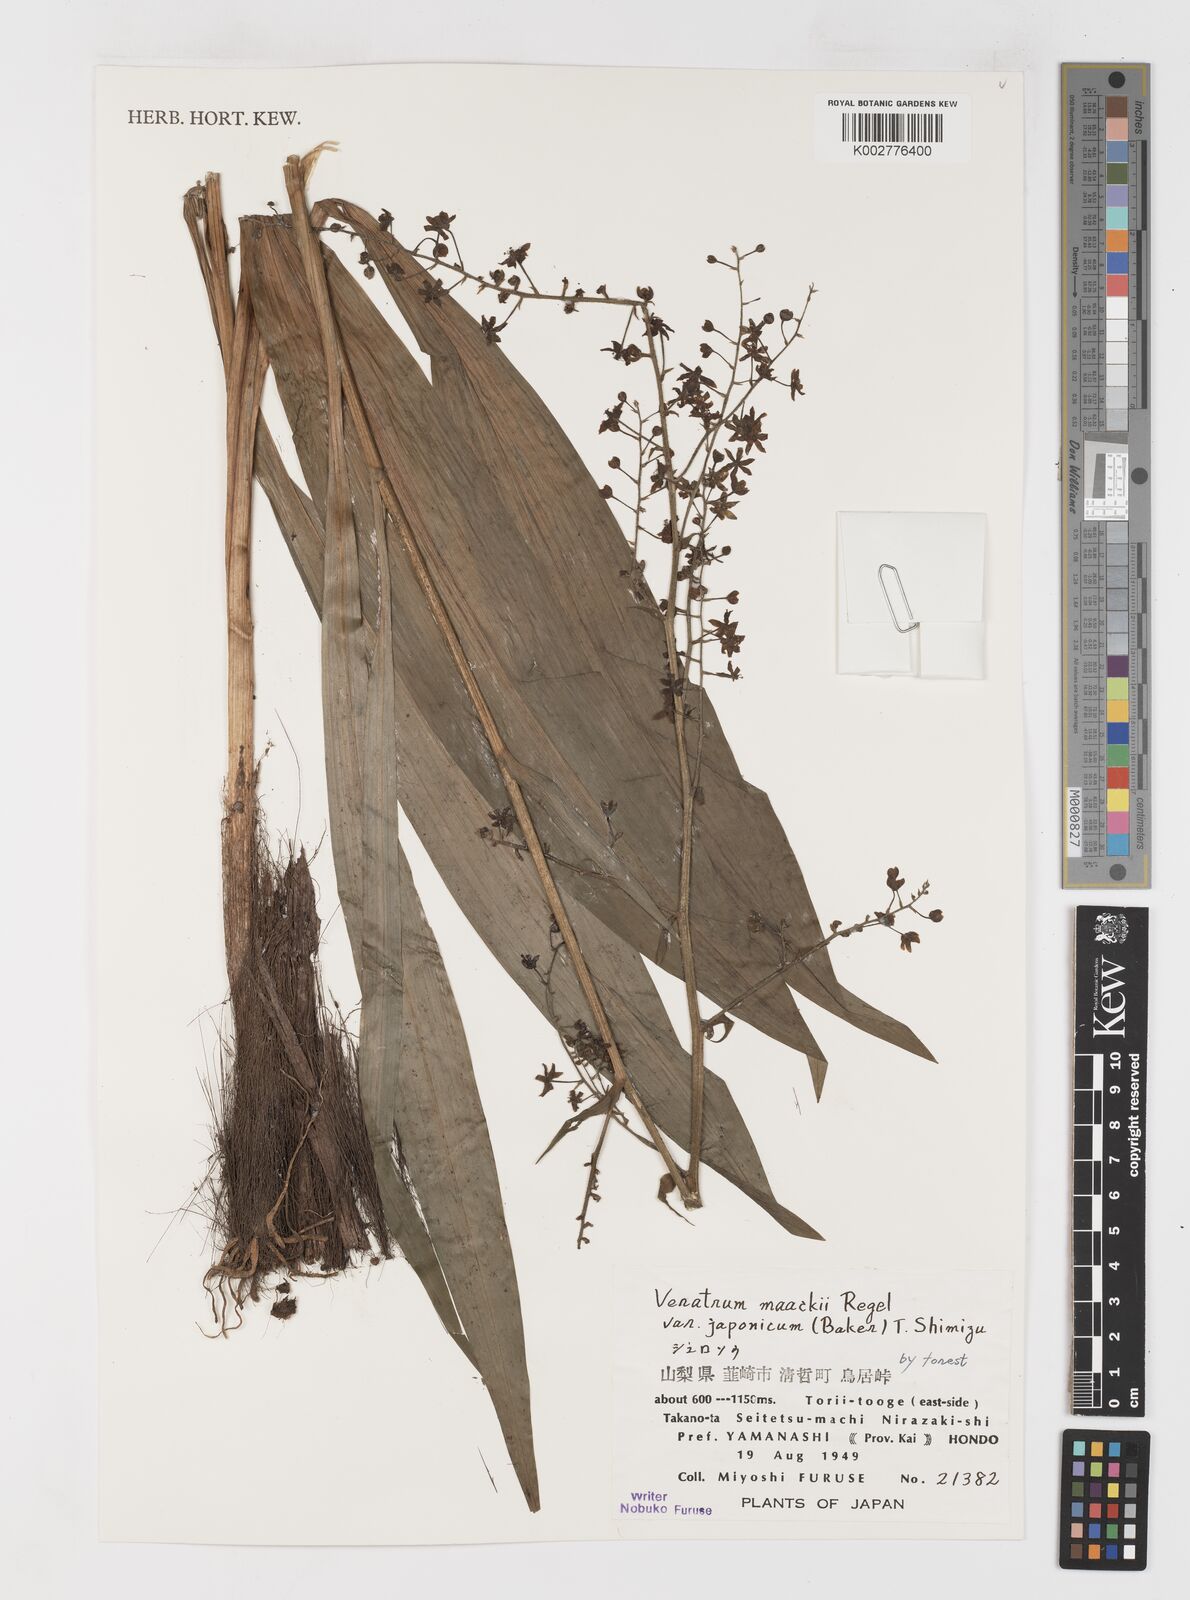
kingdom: Plantae
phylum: Tracheophyta
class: Liliopsida
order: Liliales
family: Melanthiaceae
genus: Veratrum
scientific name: Veratrum maackii
